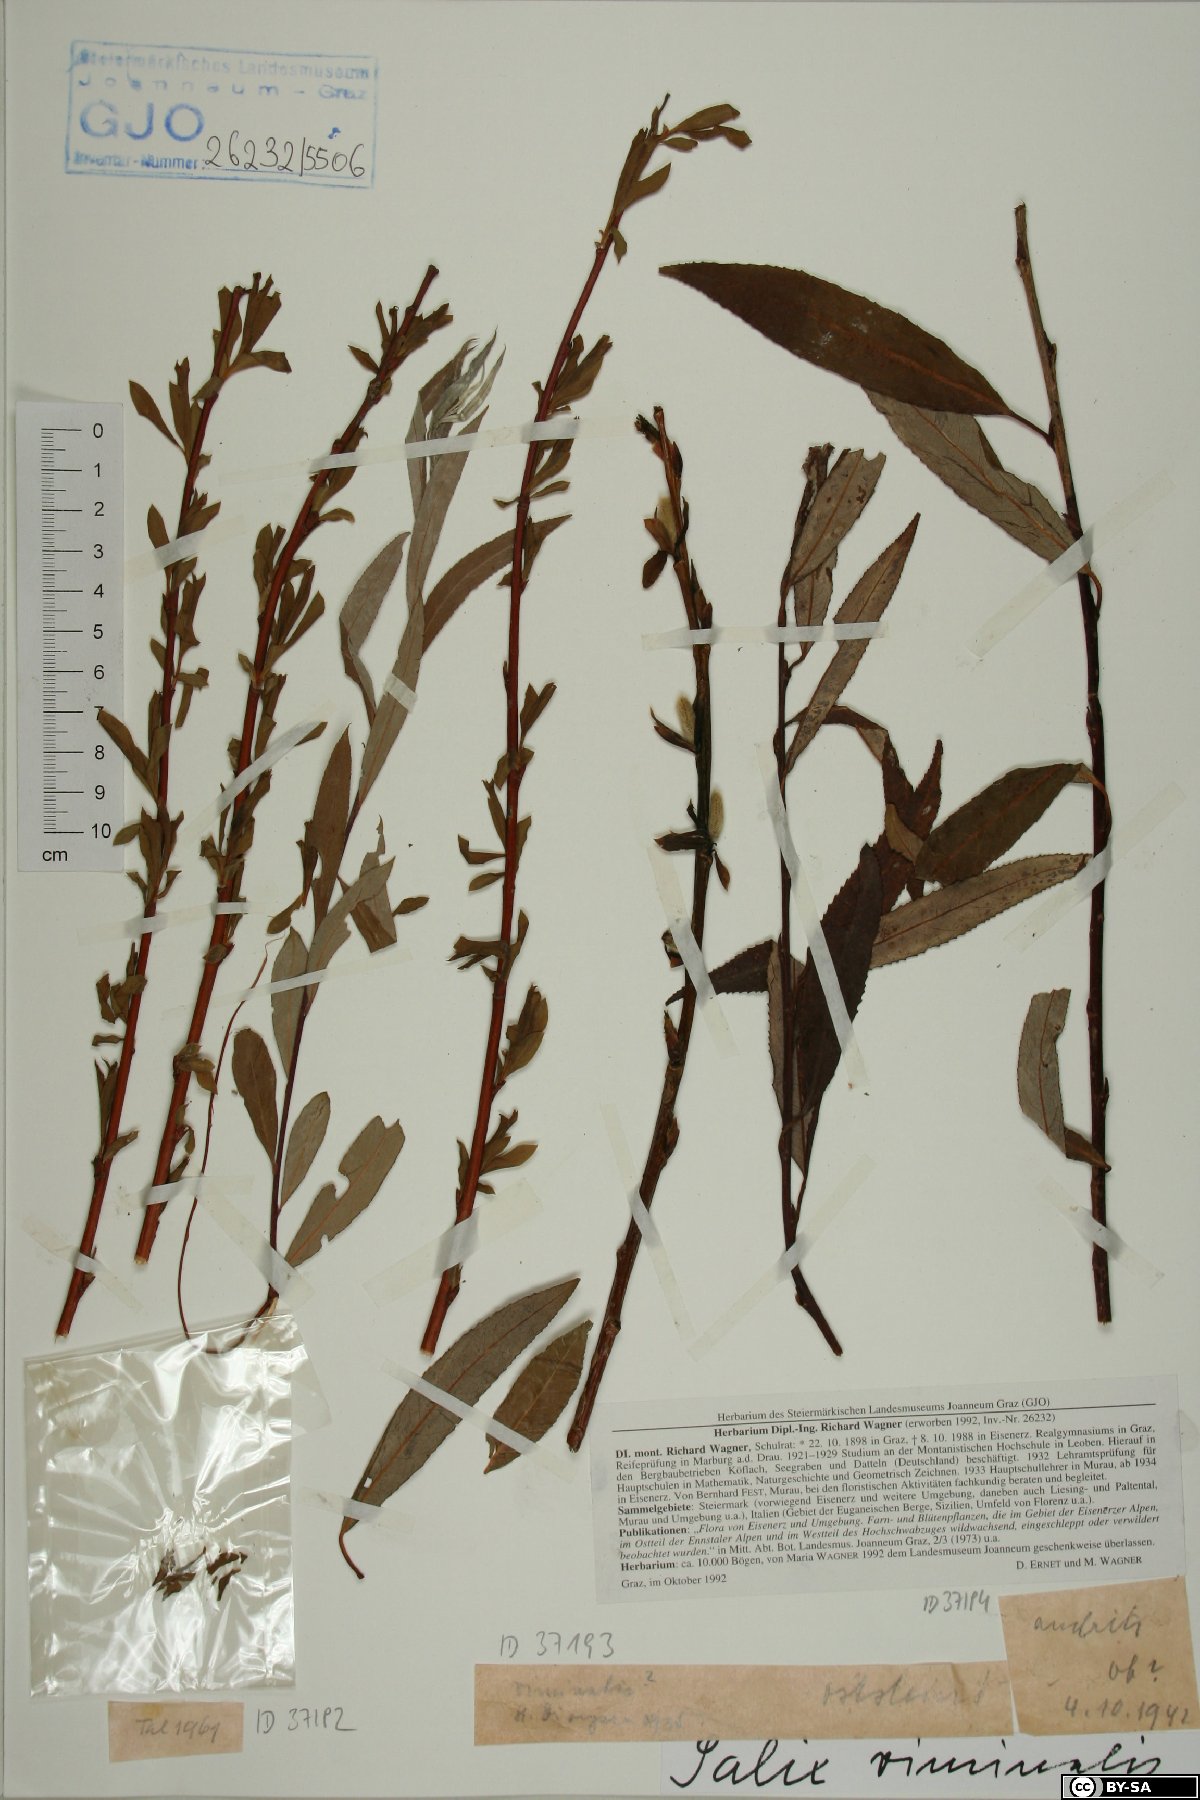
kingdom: Plantae
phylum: Tracheophyta
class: Magnoliopsida
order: Malpighiales
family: Salicaceae
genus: Salix
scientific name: Salix viminalis
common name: Osier
